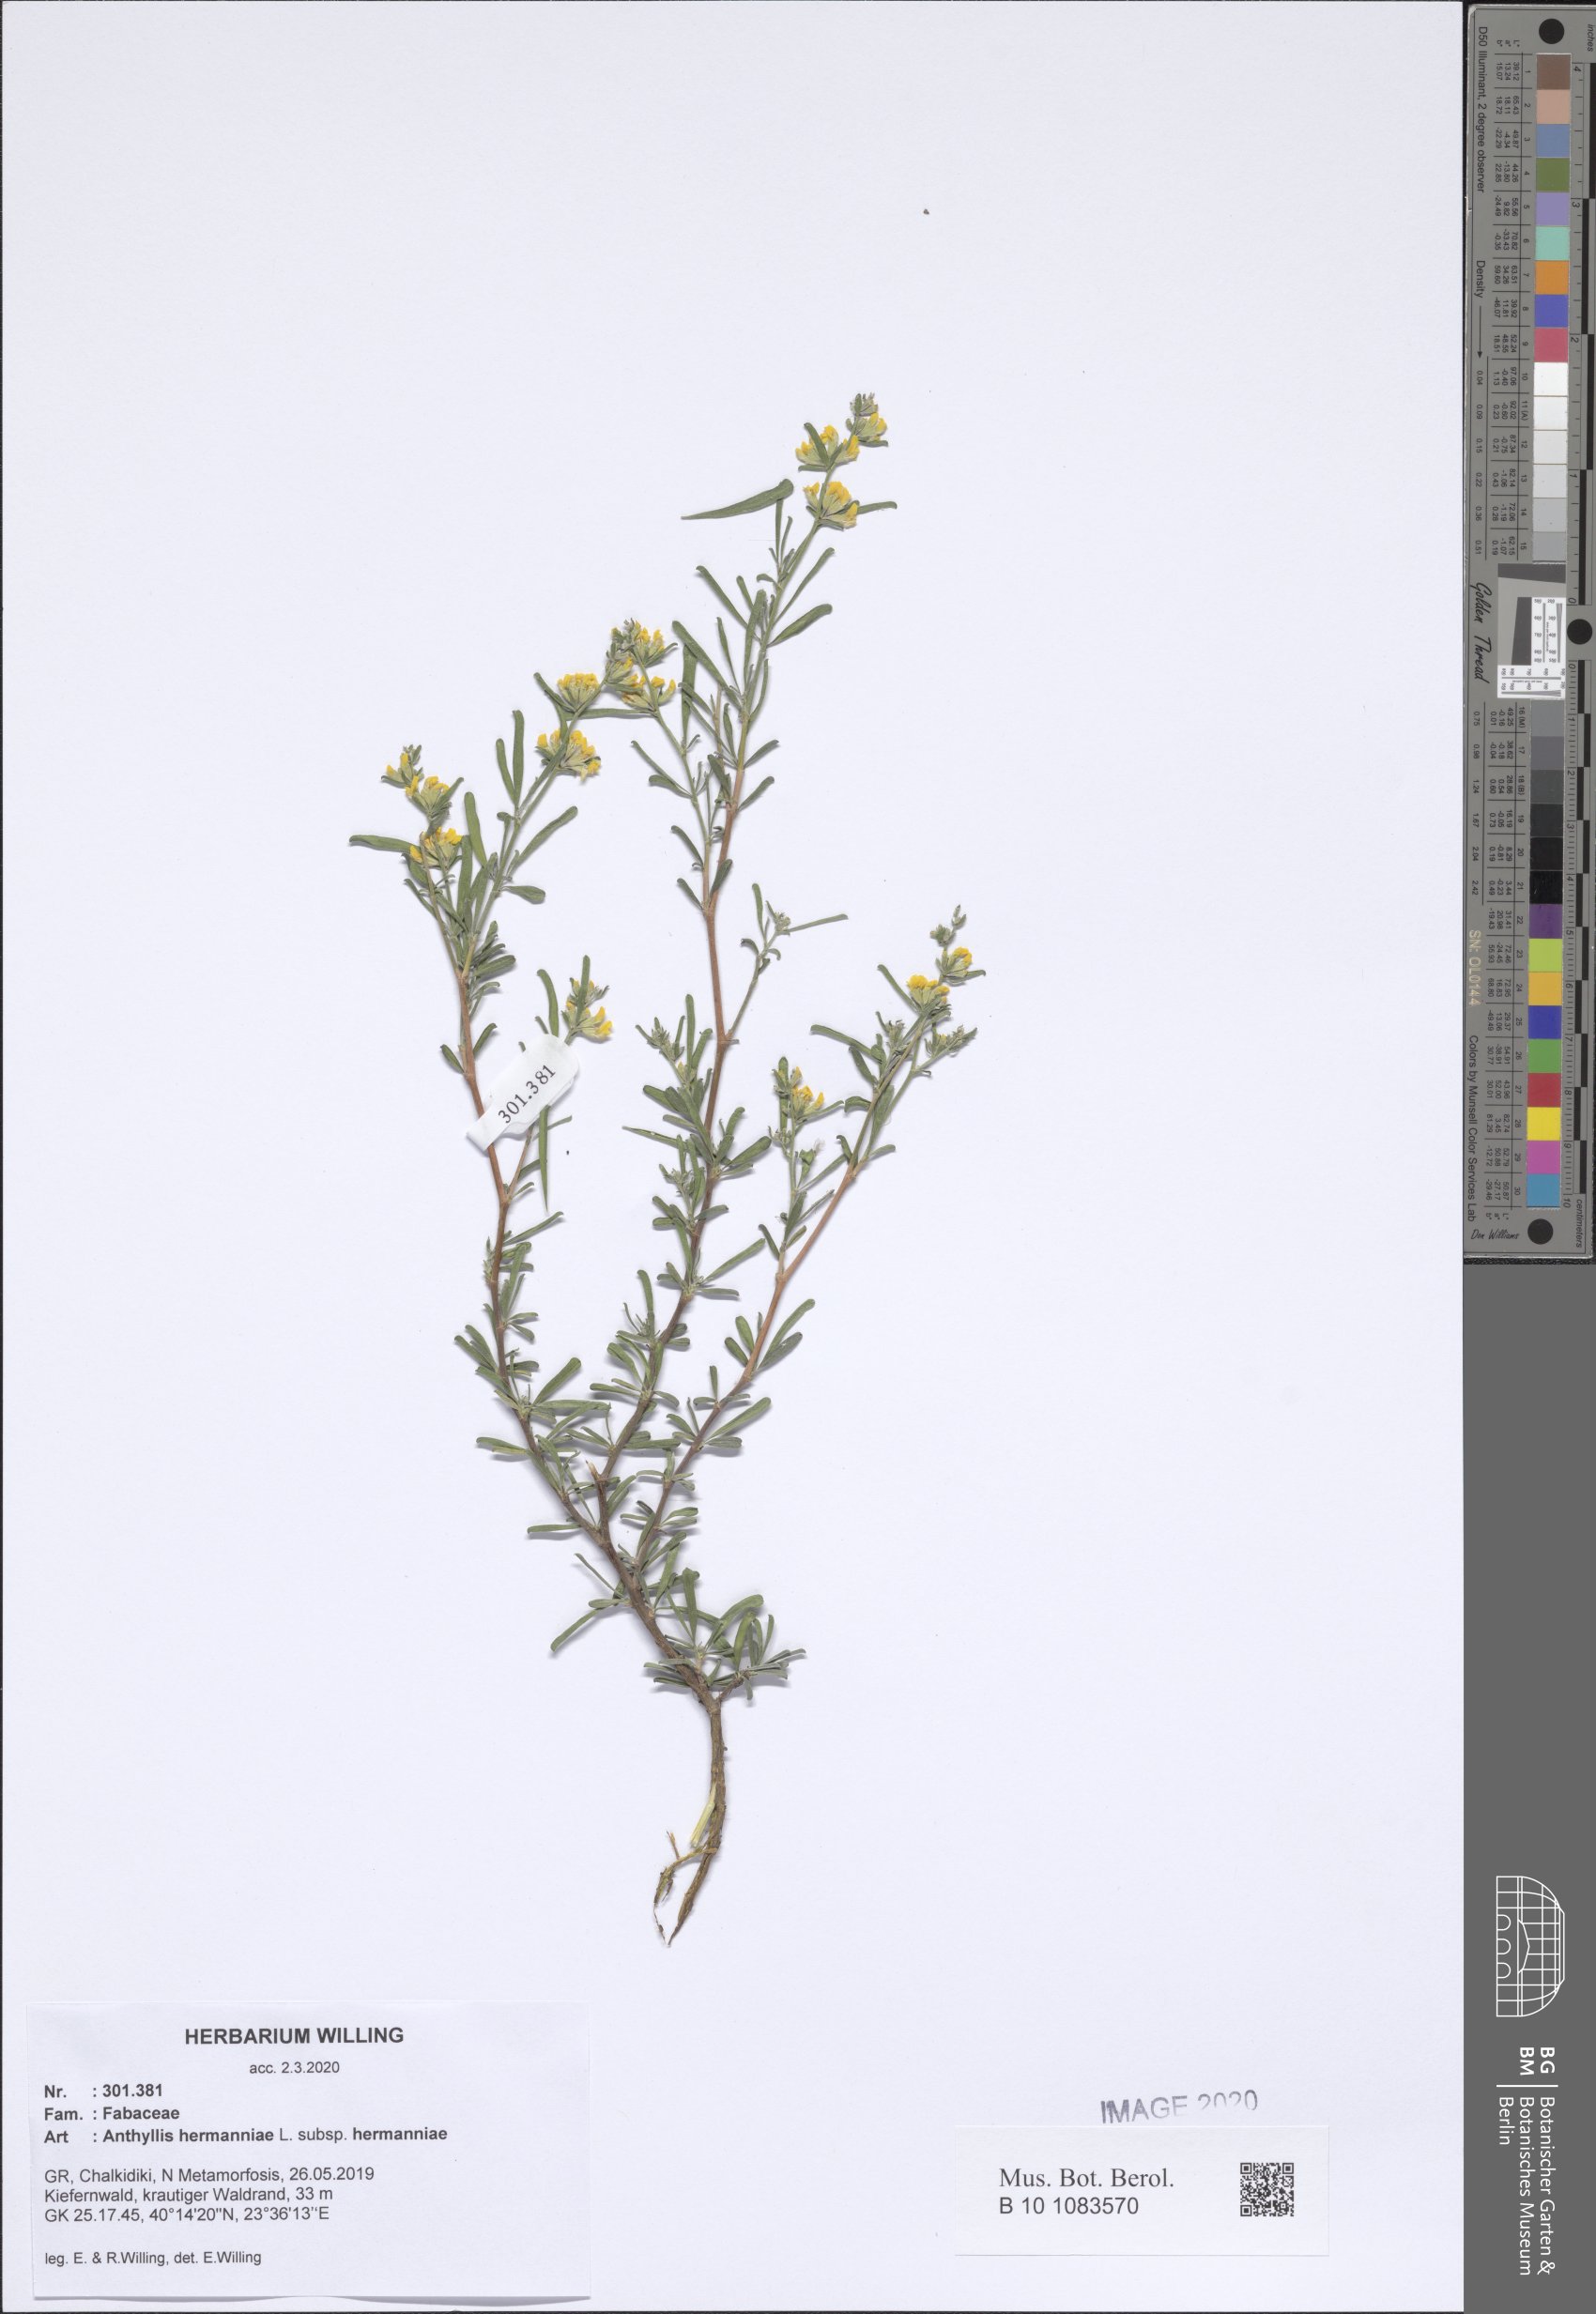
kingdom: Plantae
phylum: Tracheophyta
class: Magnoliopsida
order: Fabales
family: Fabaceae
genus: Anthyllis
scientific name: Anthyllis hermanniae
